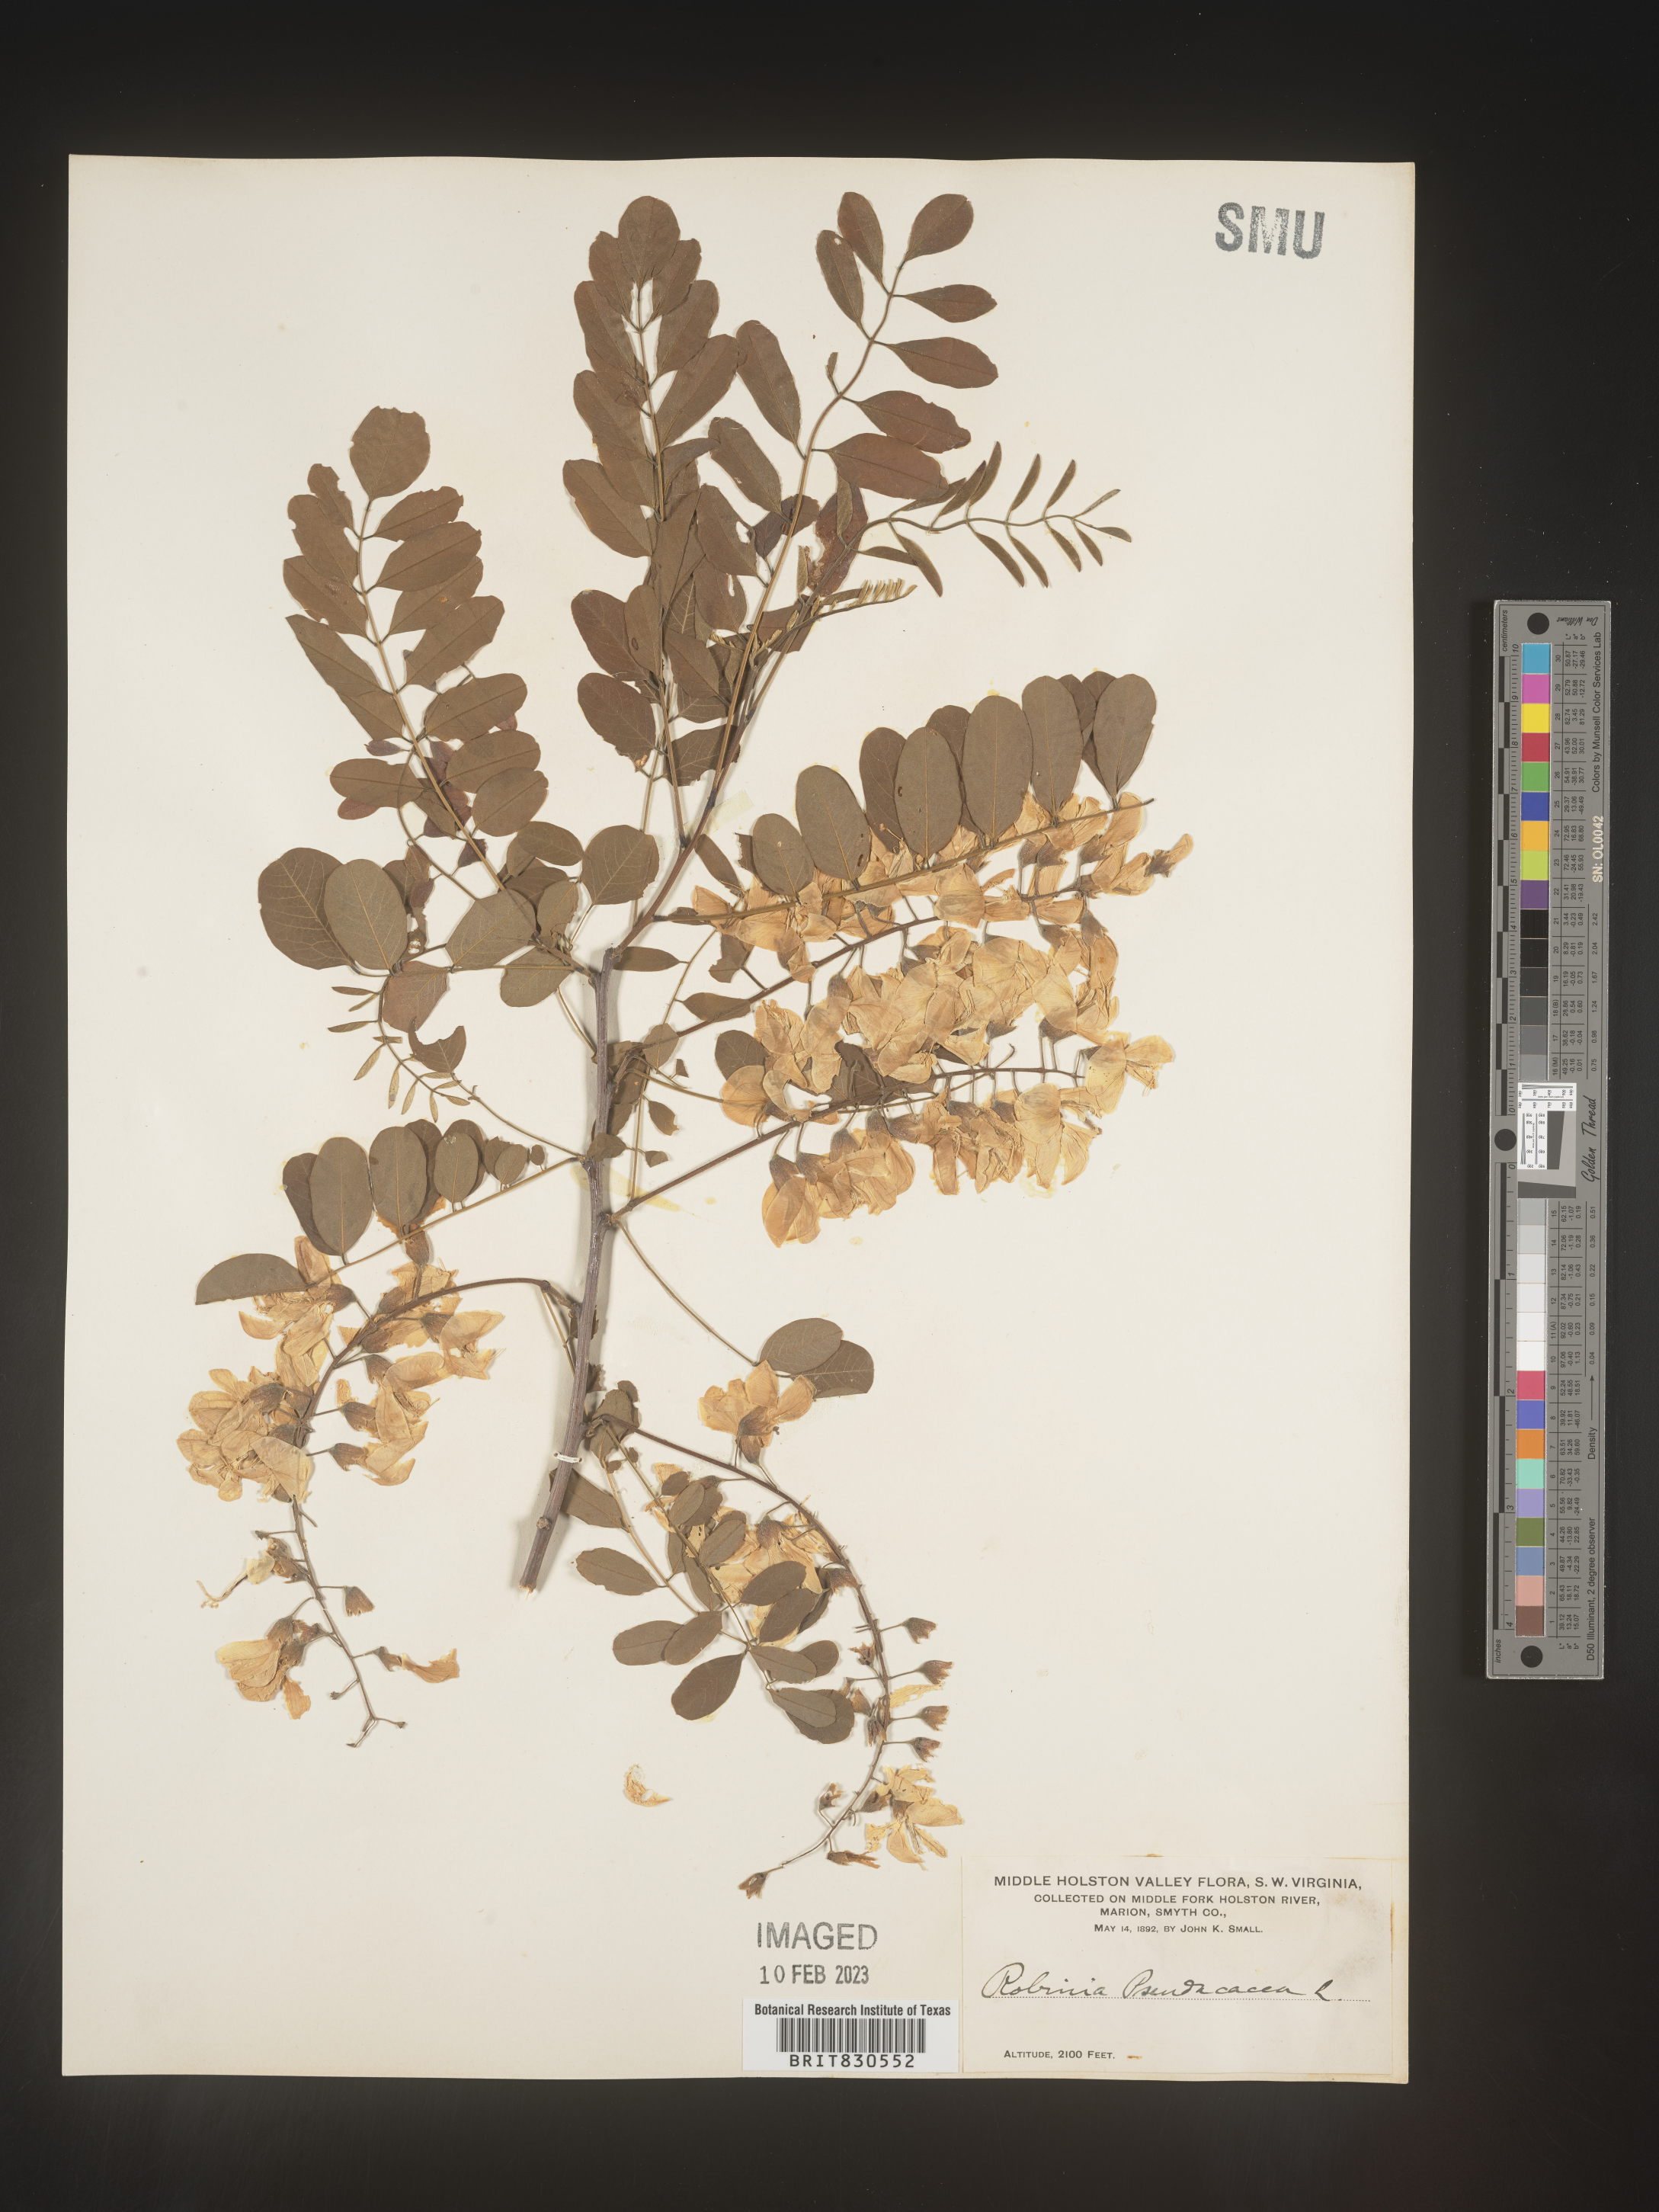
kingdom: Plantae
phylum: Tracheophyta
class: Magnoliopsida
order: Fabales
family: Fabaceae
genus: Robinia
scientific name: Robinia pseudoacacia
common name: Black locust
